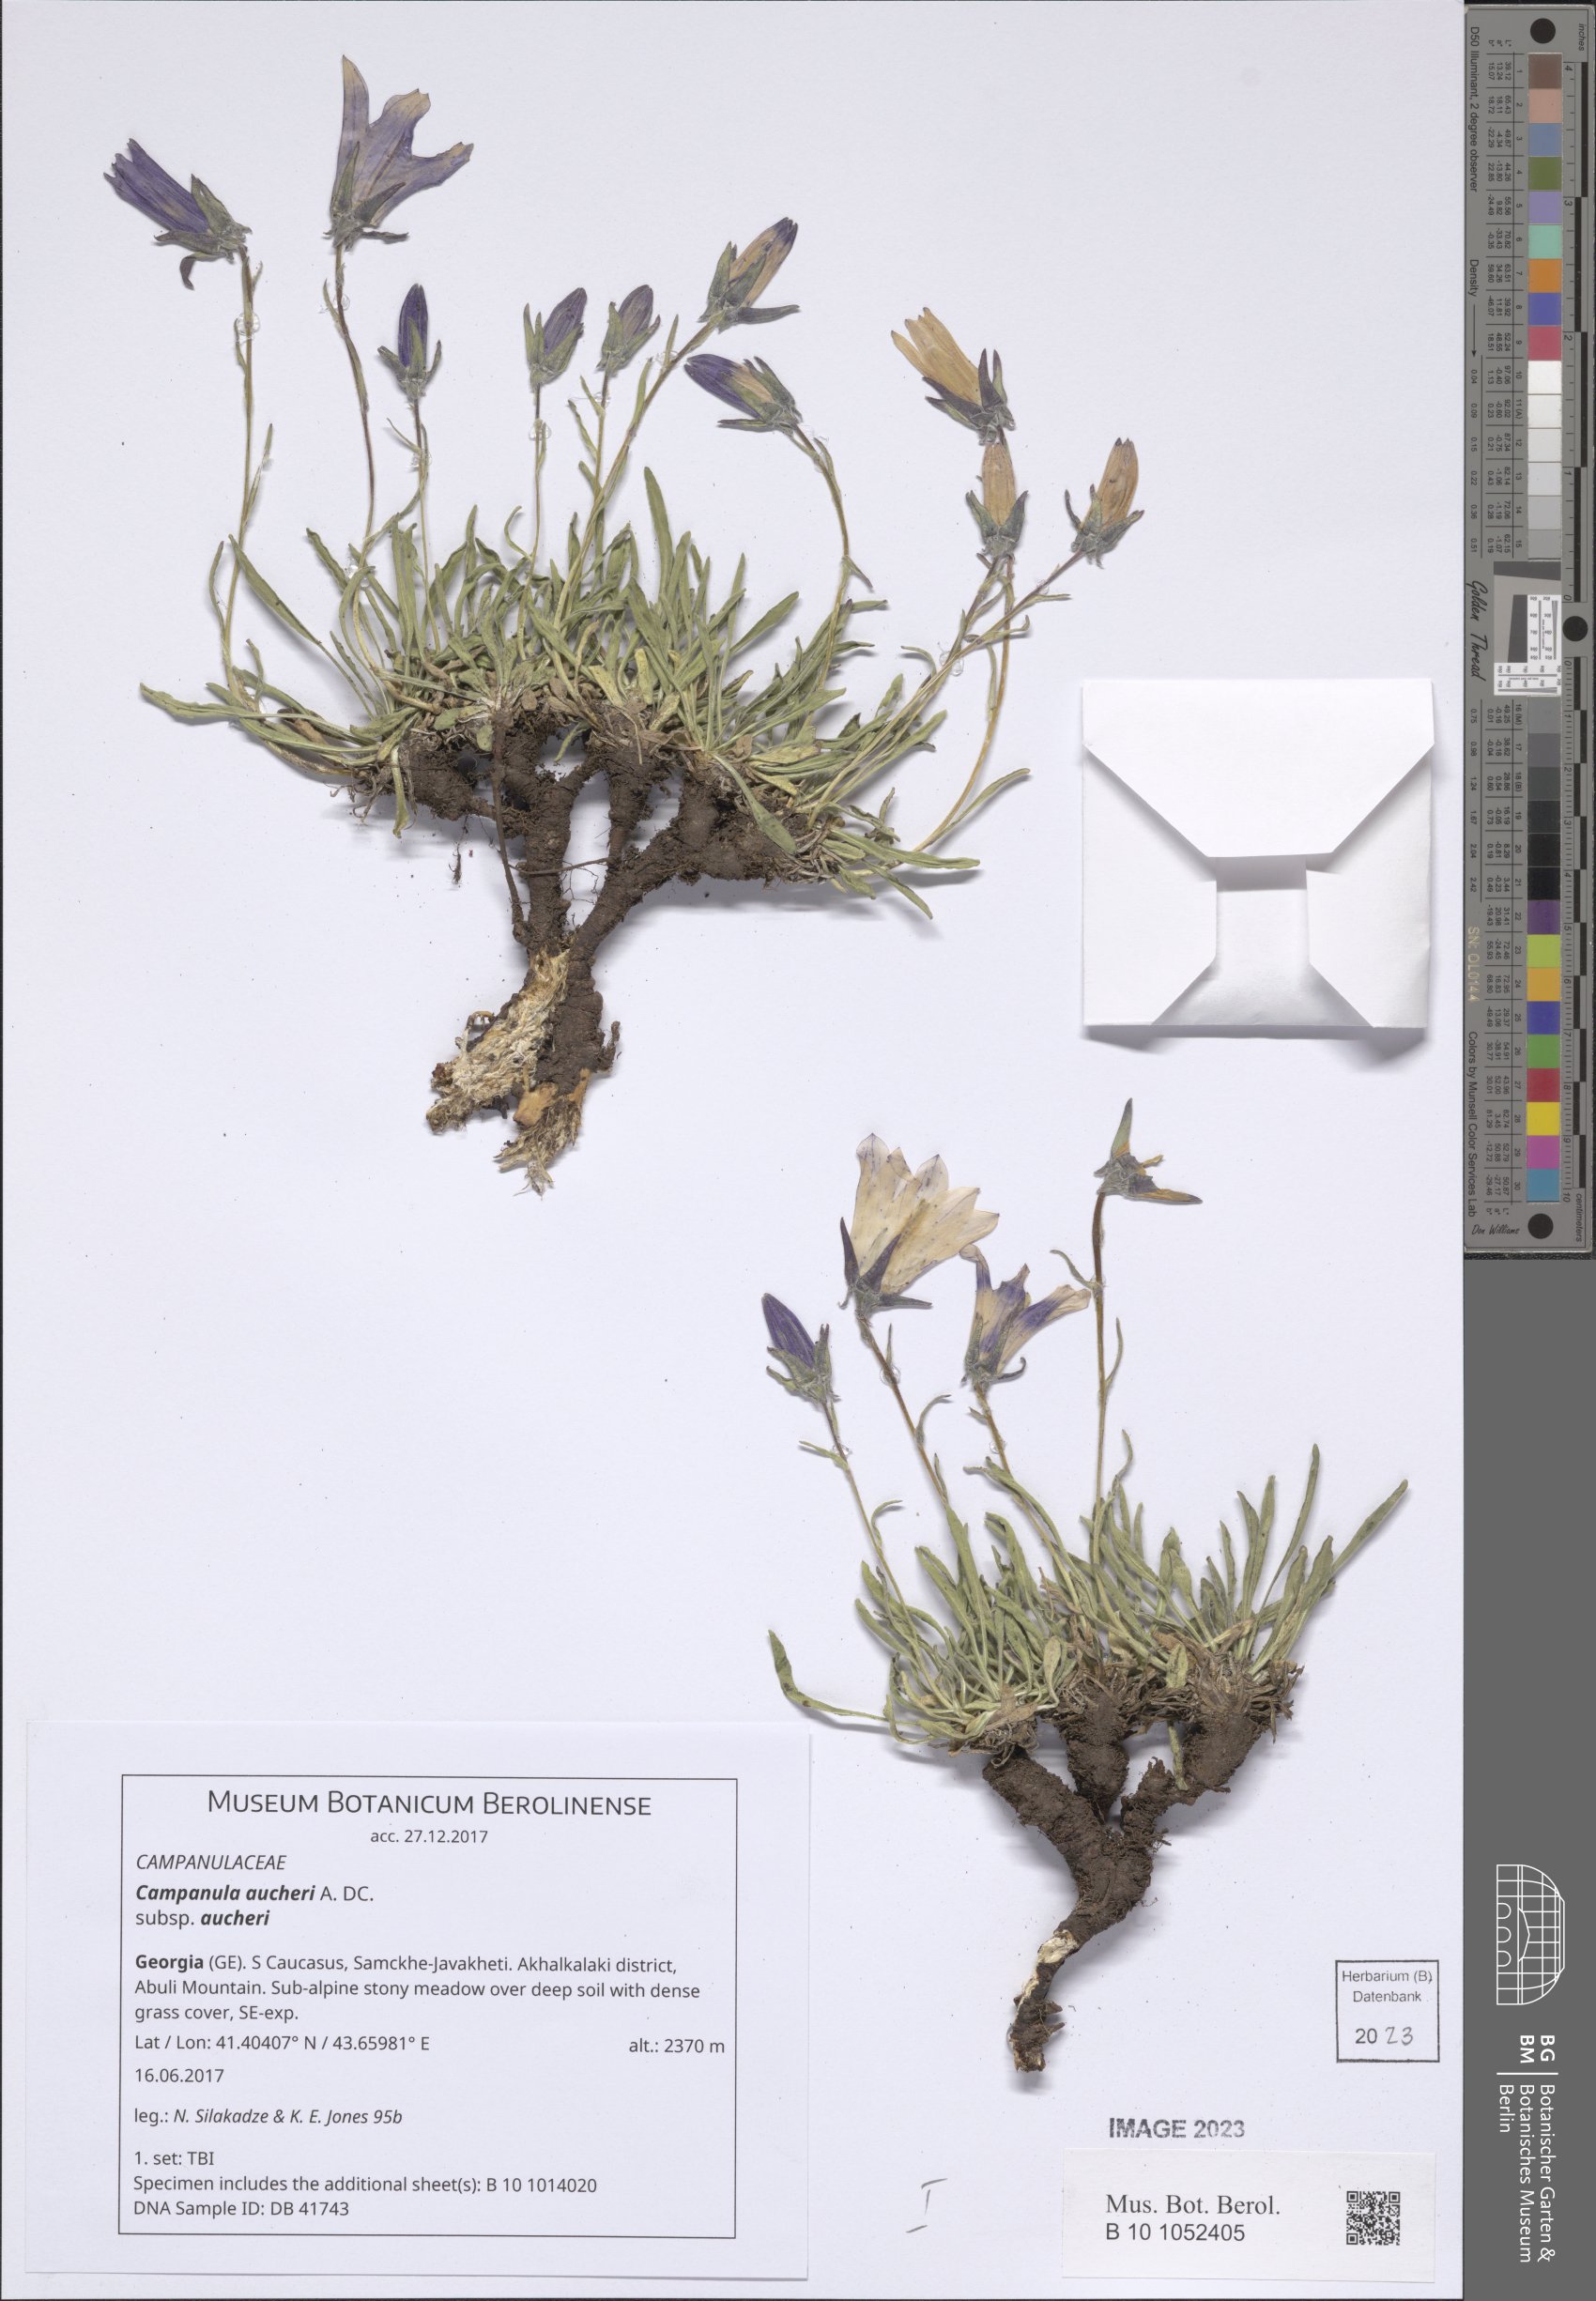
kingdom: Plantae
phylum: Tracheophyta
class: Magnoliopsida
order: Asterales
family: Campanulaceae
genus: Campanula
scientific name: Campanula saxifraga
